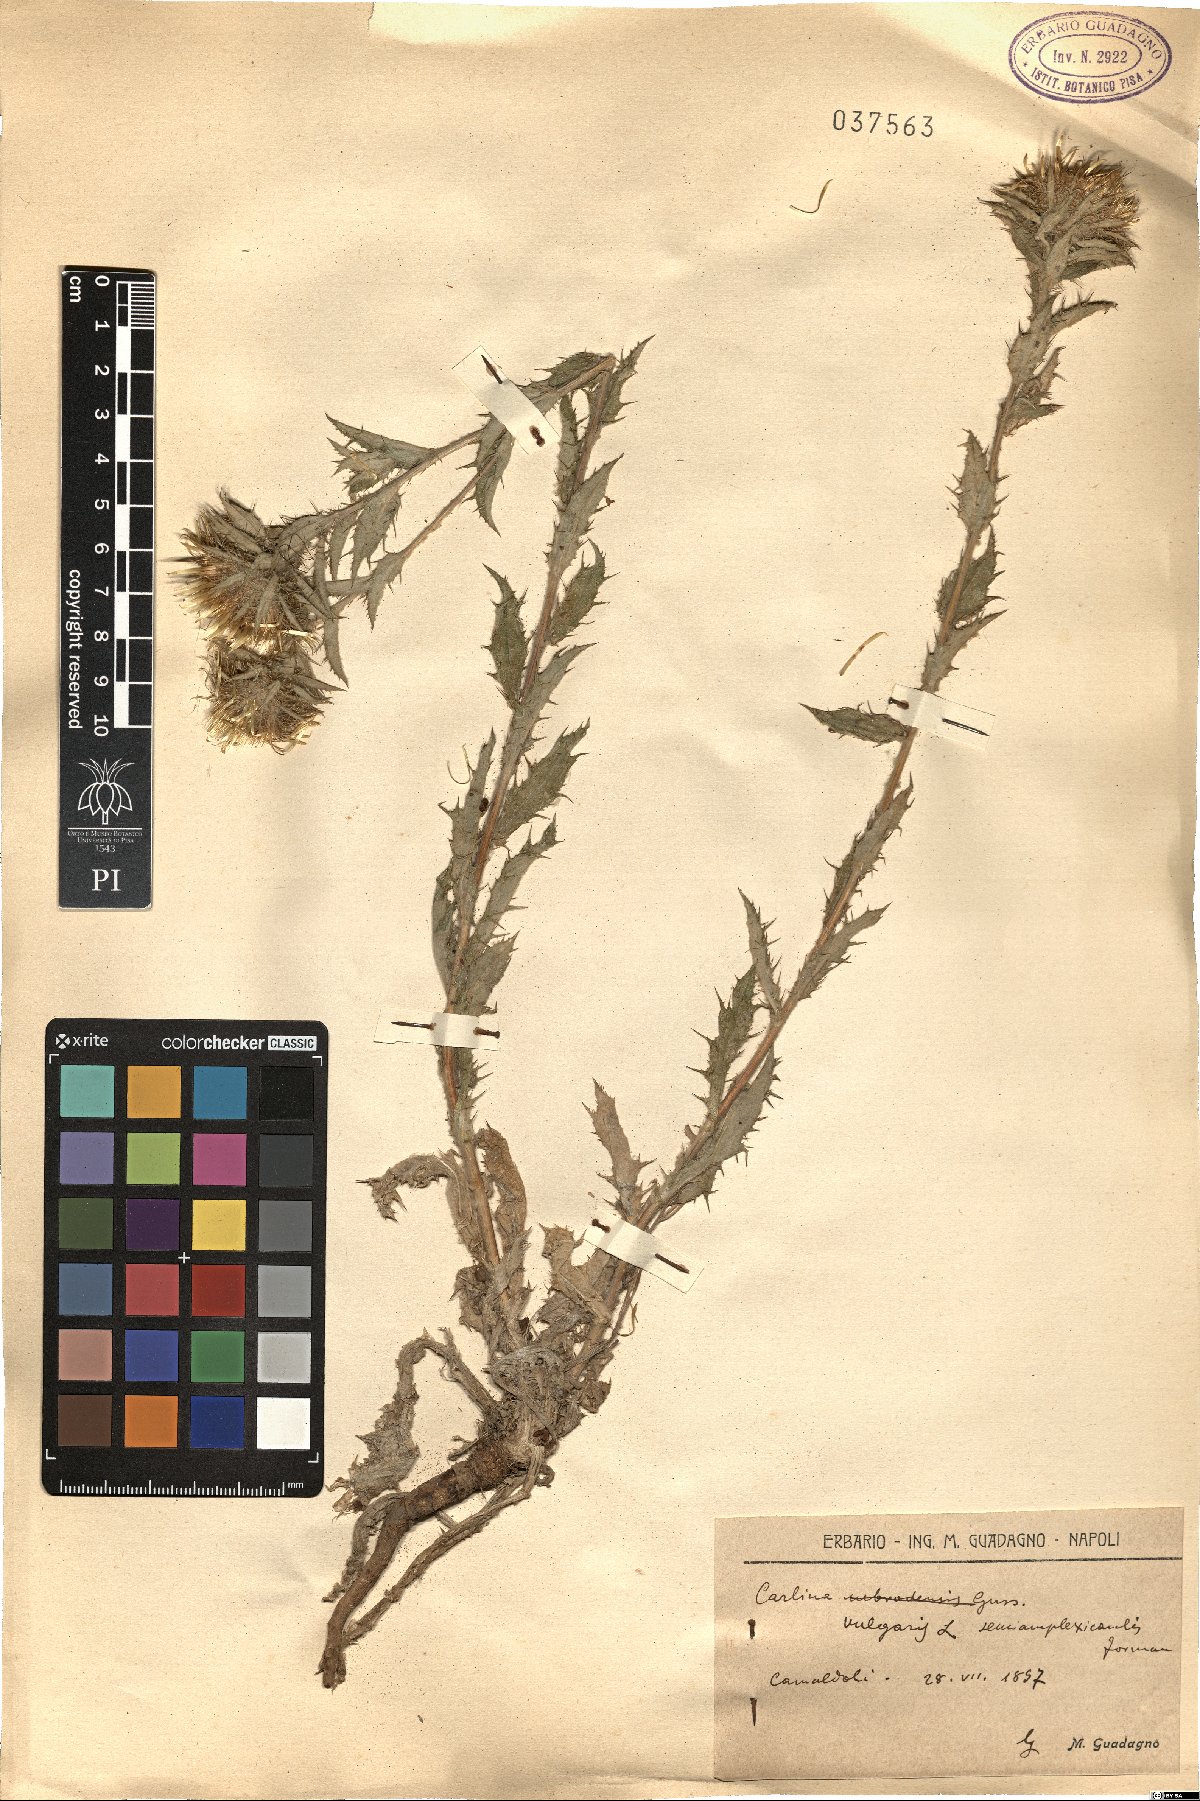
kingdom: Plantae
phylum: Tracheophyta
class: Magnoliopsida
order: Asterales
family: Asteraceae
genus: Carlina
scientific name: Carlina vulgaris
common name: Carline thistle
